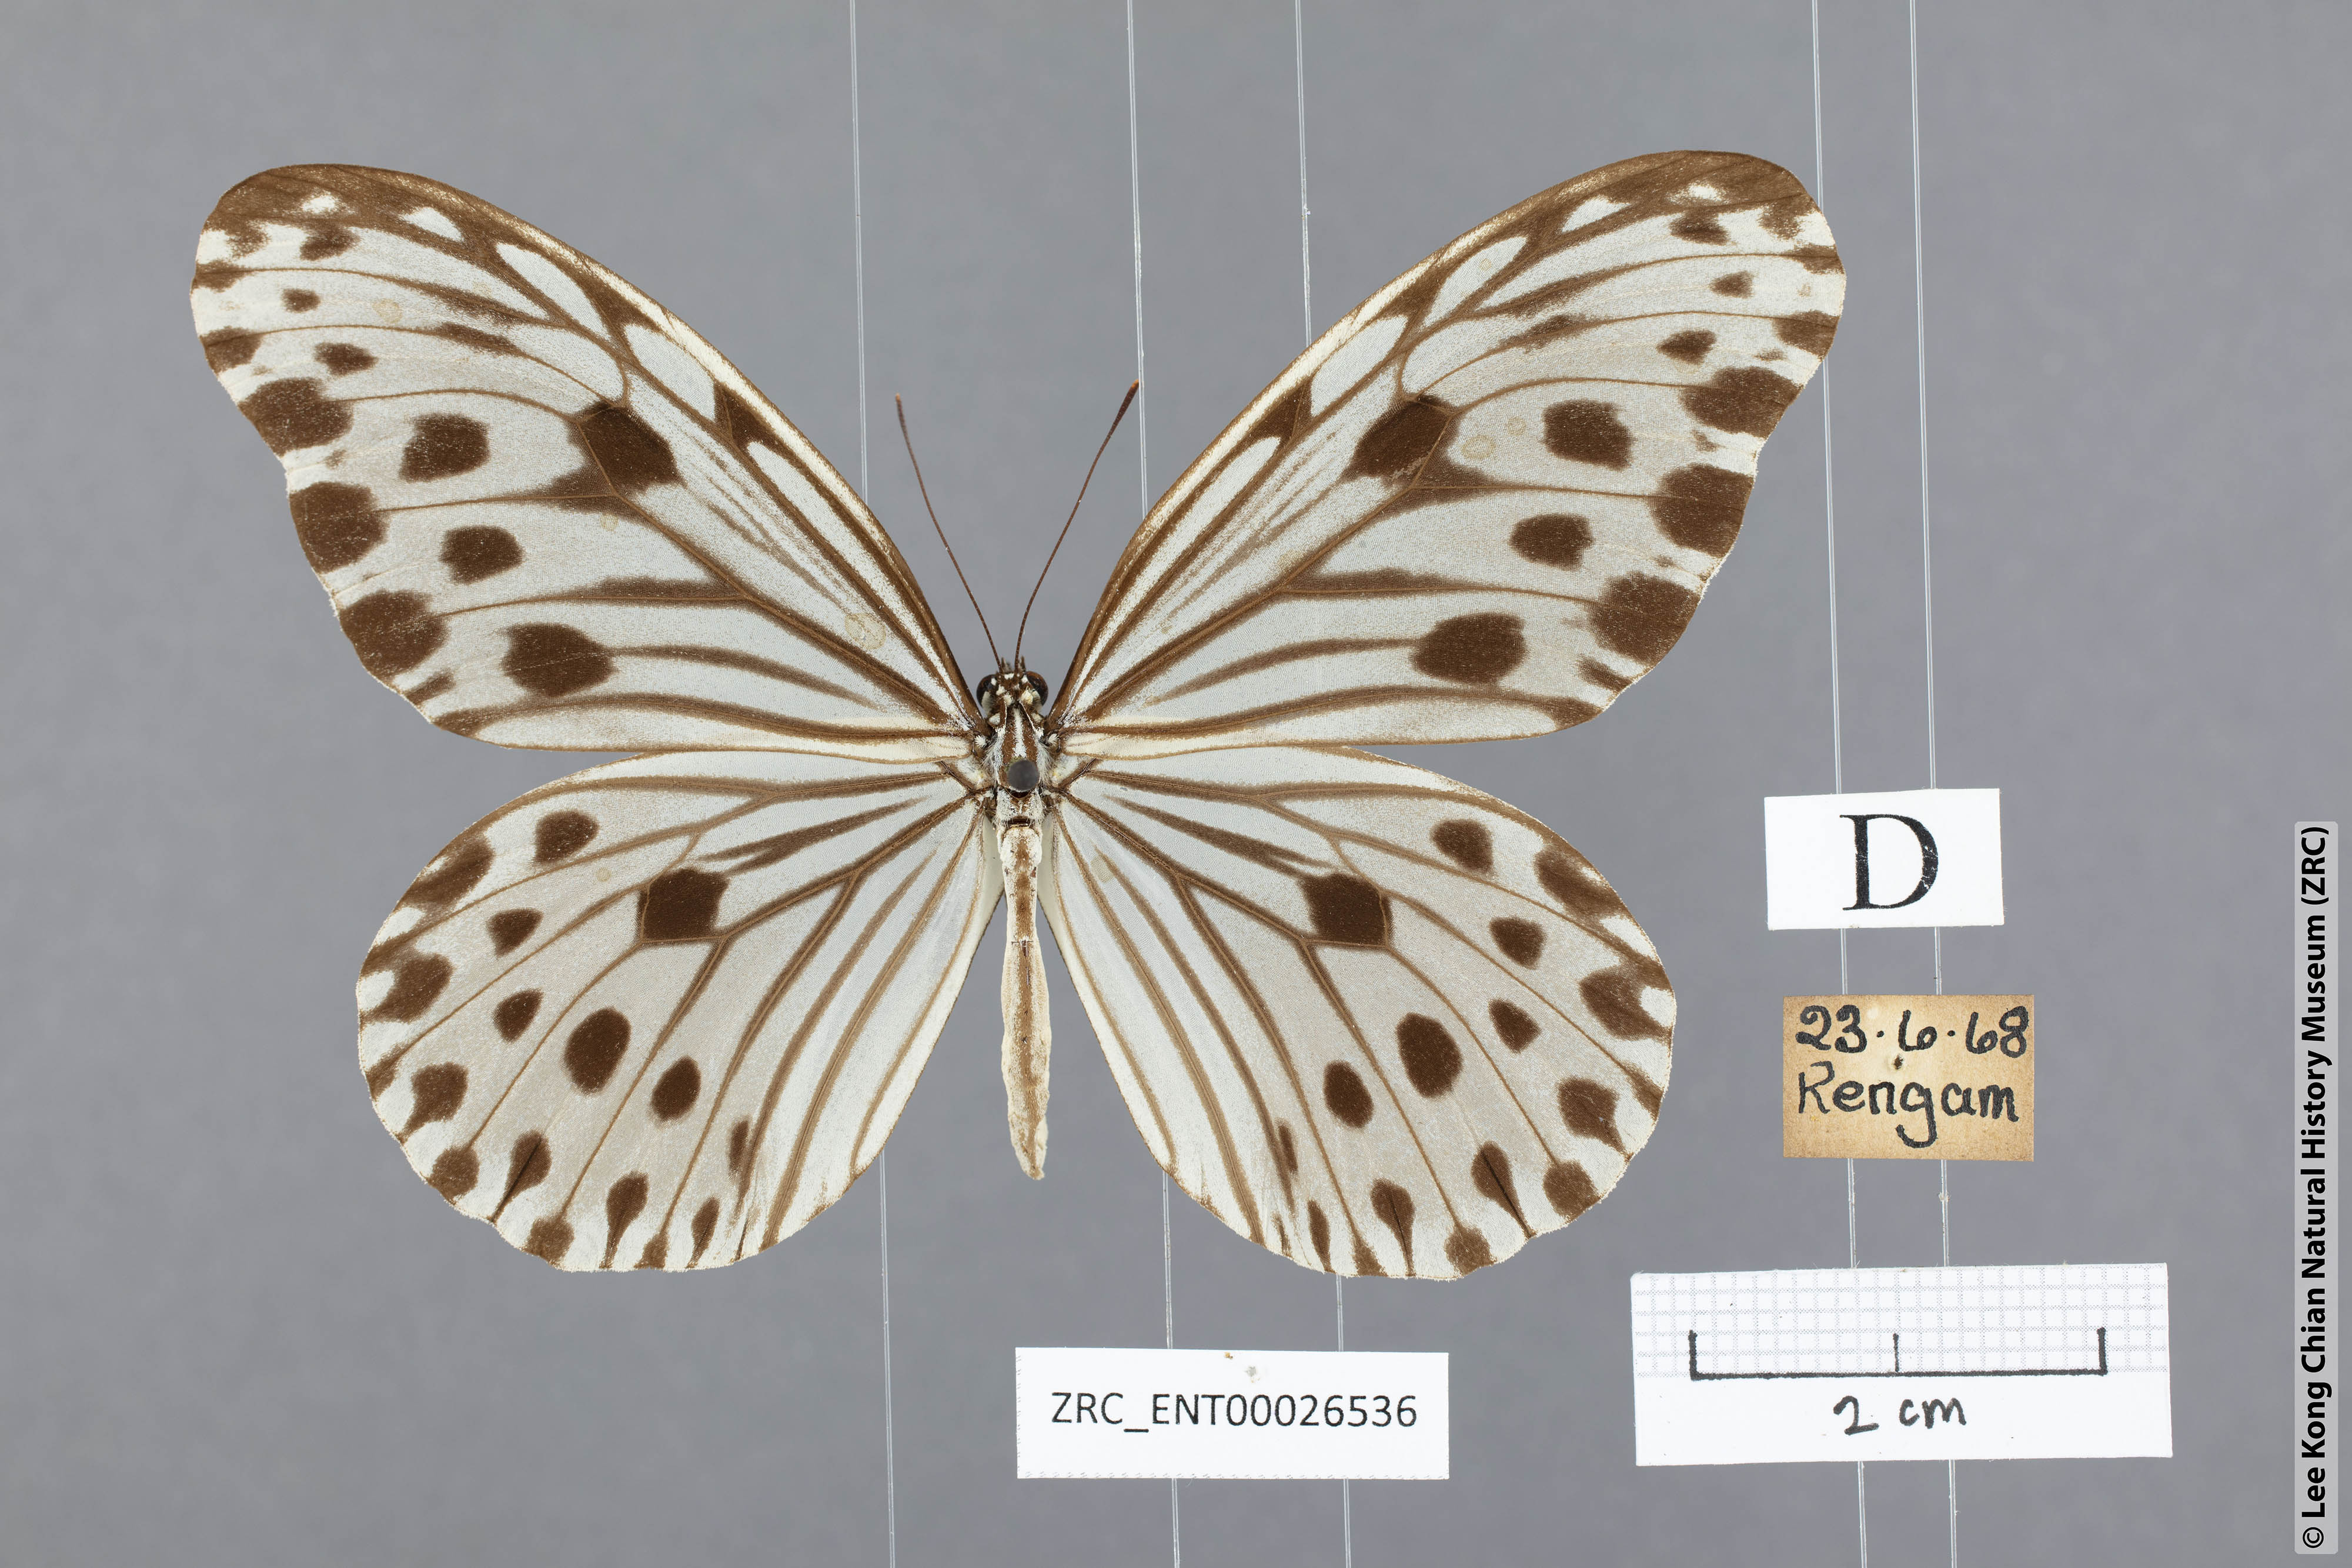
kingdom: Animalia
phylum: Arthropoda
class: Insecta
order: Lepidoptera
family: Nymphalidae
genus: Ideopsis
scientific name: Ideopsis gaura
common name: Smaller wood nymph
